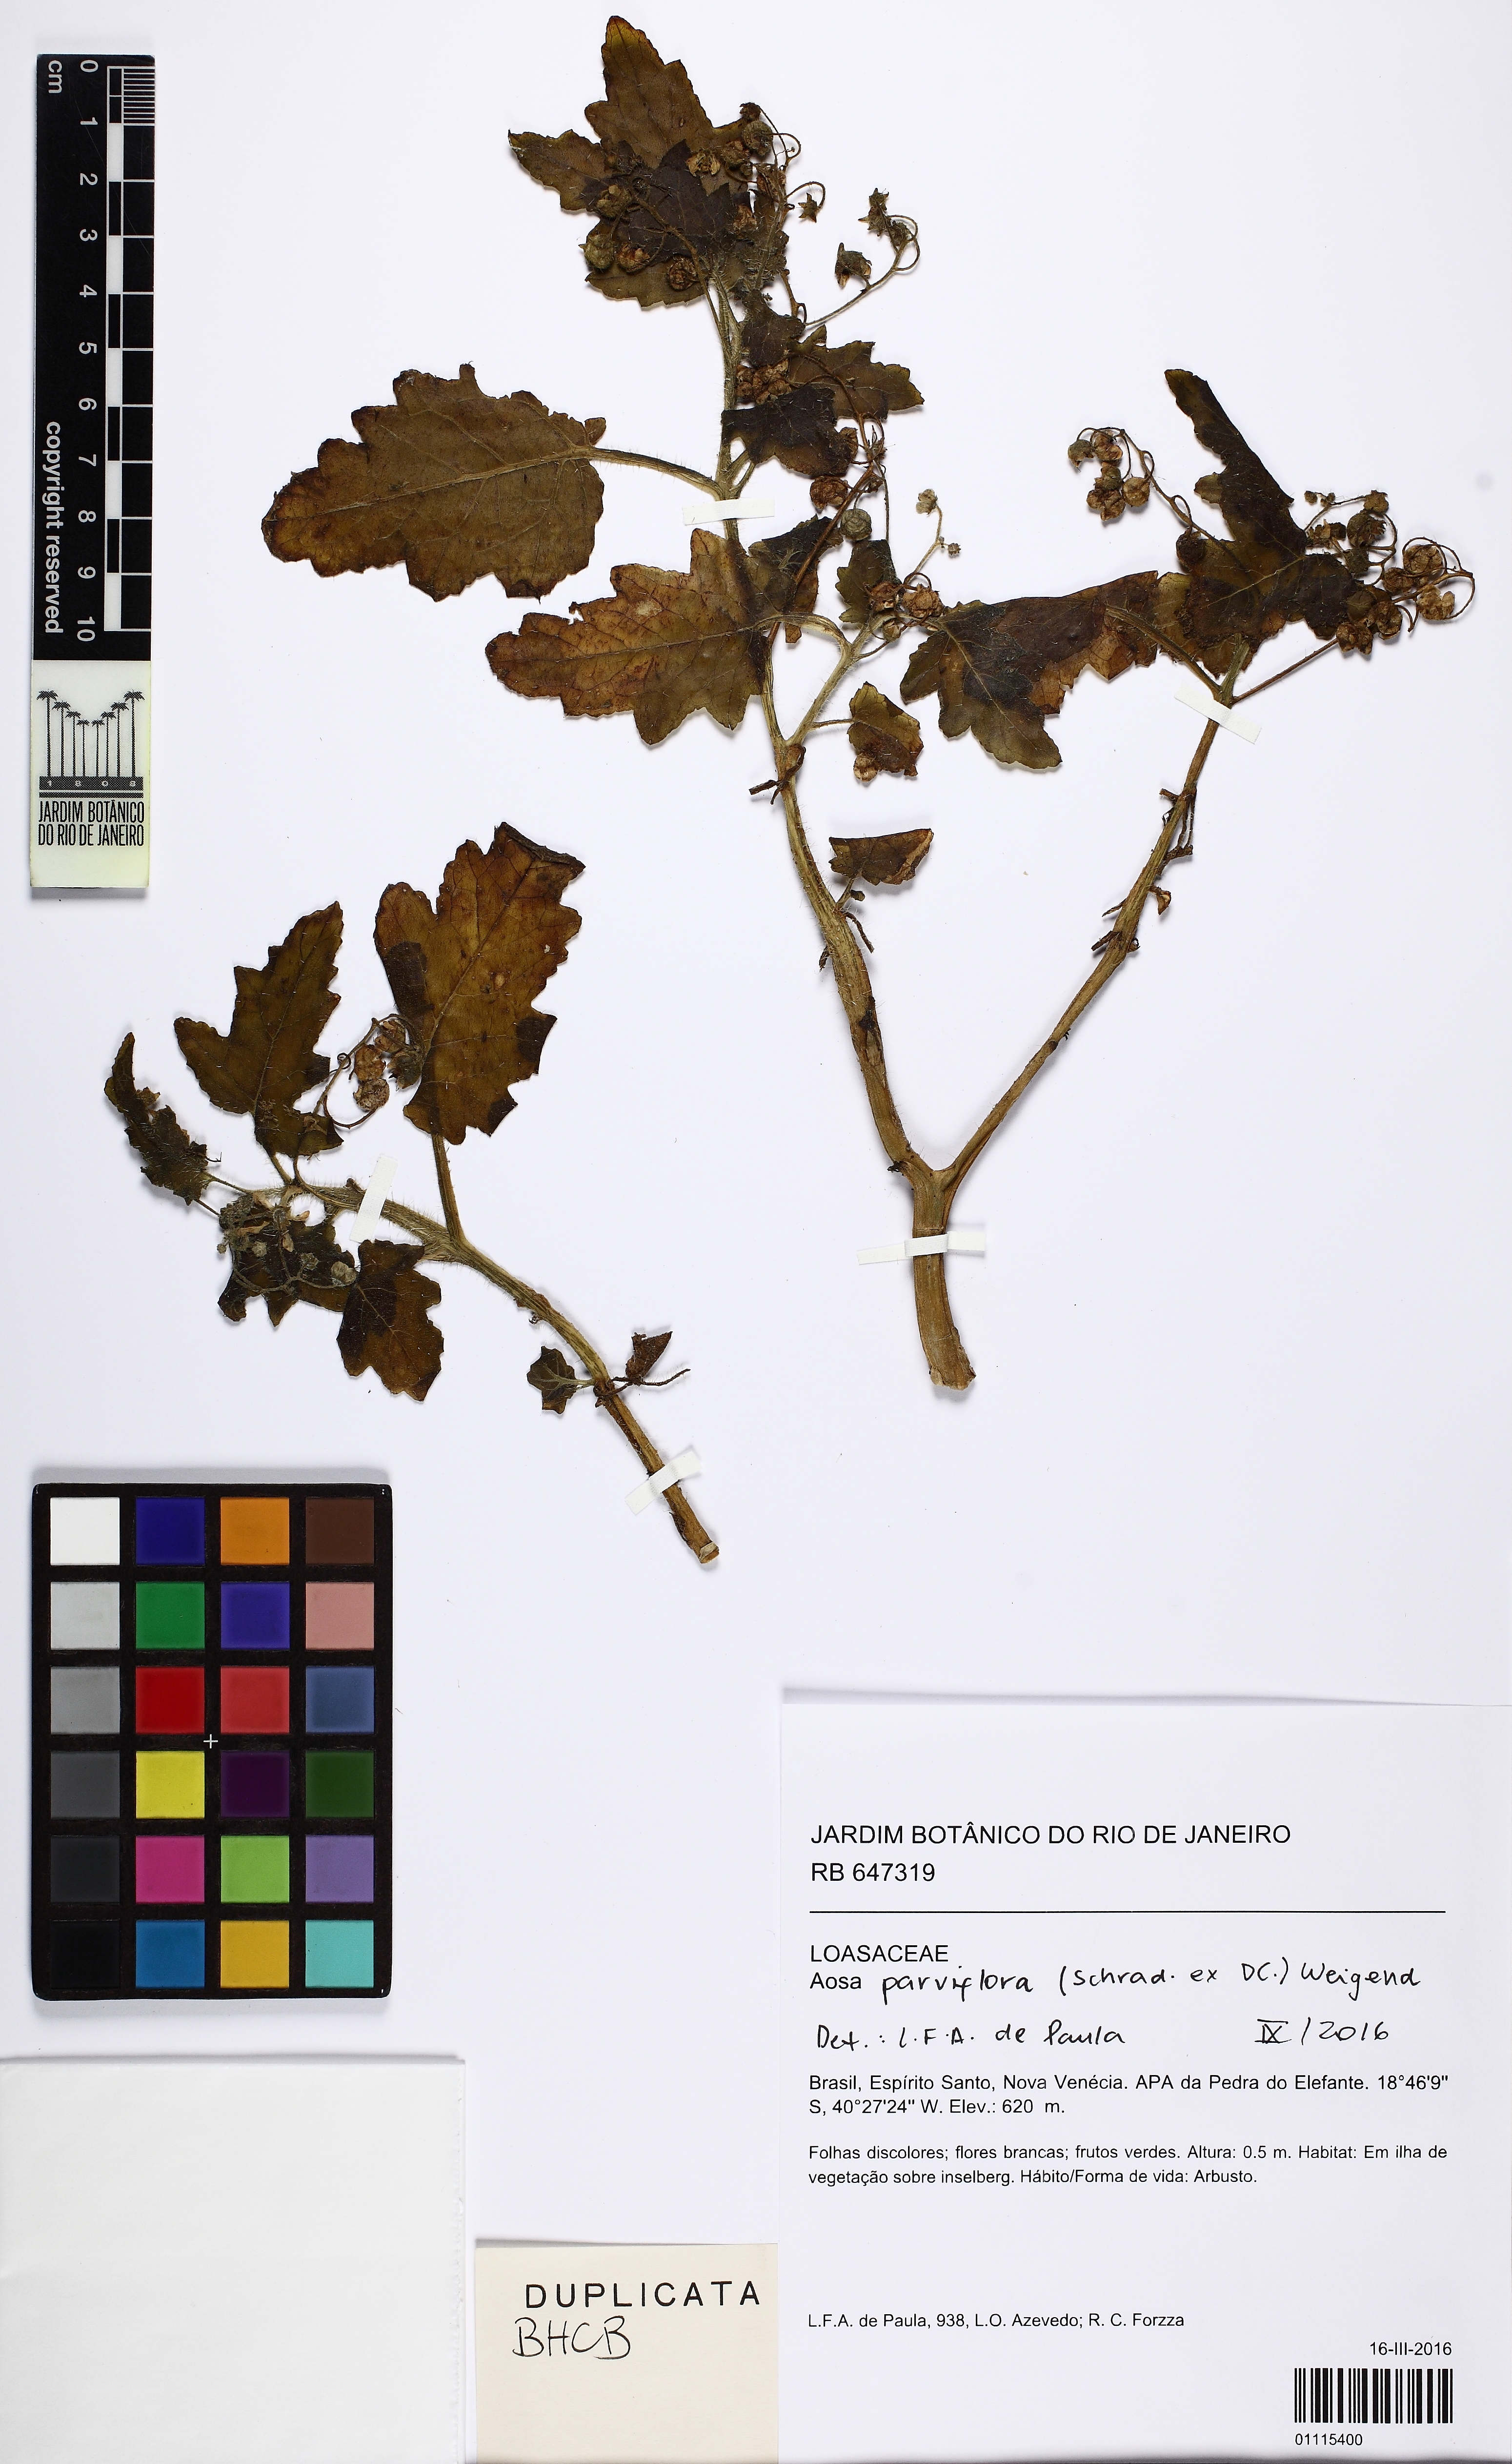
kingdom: Plantae
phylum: Tracheophyta
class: Magnoliopsida
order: Cornales
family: Loasaceae
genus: Aosa
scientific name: Aosa parviflora
